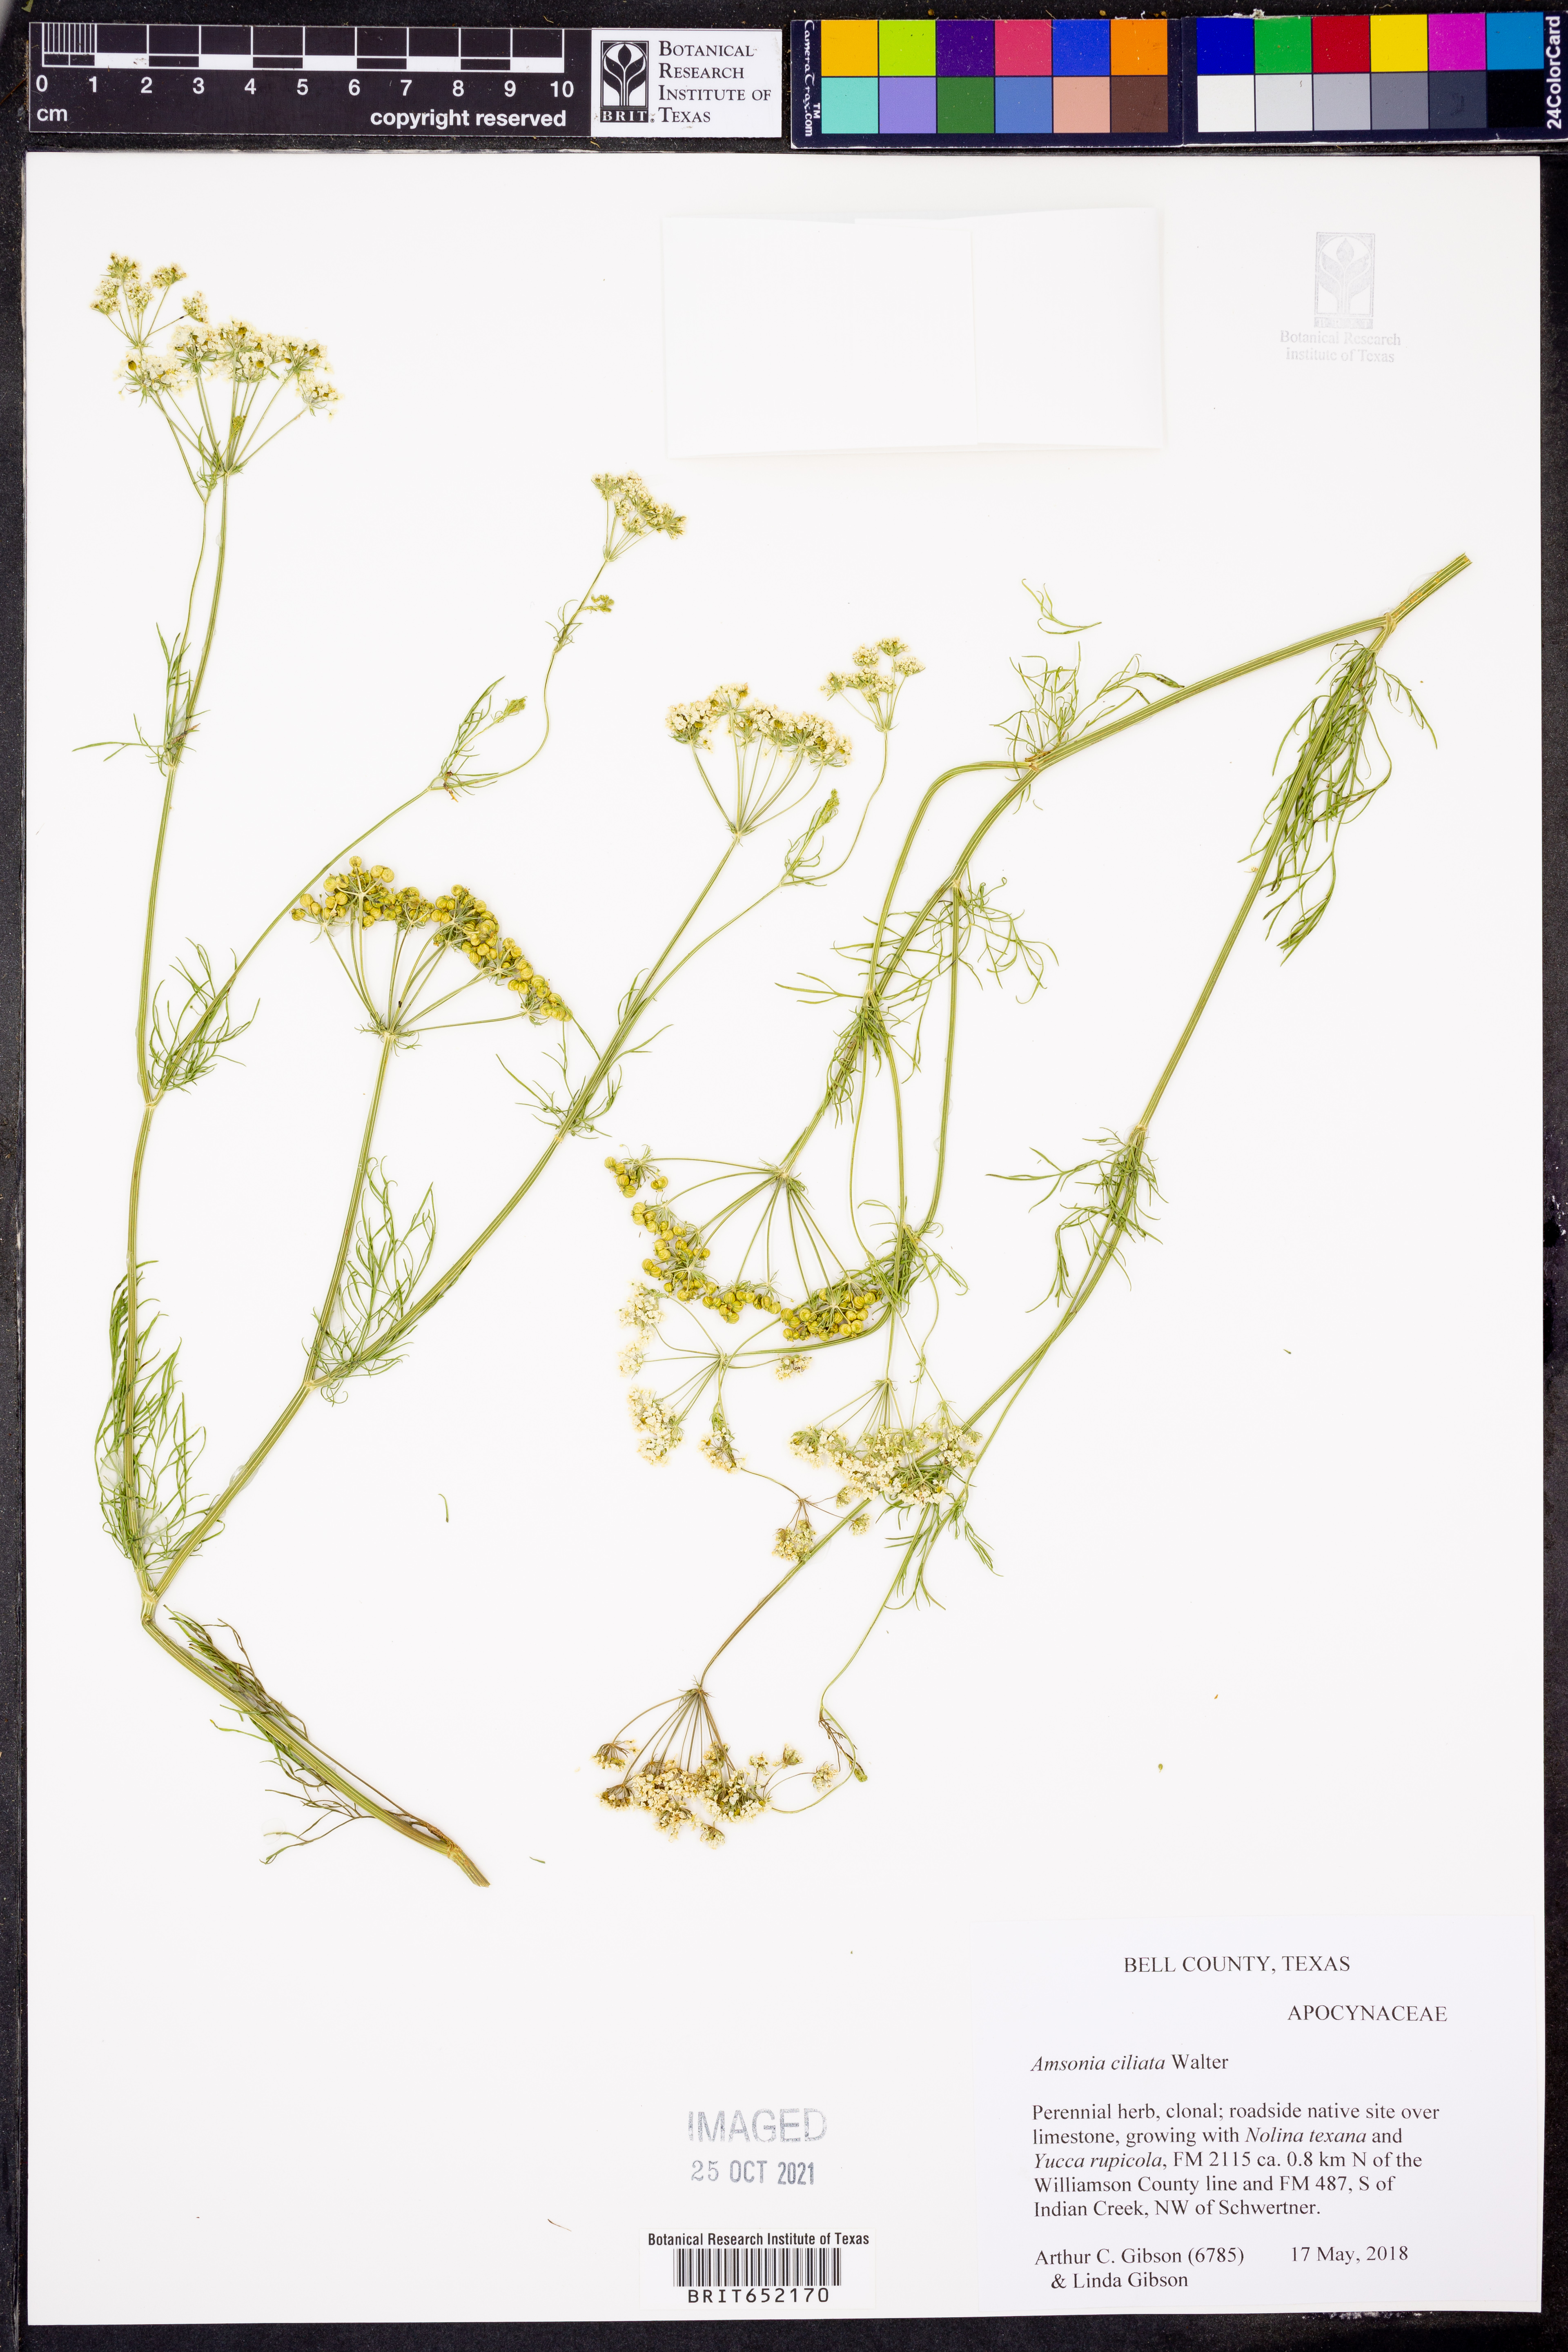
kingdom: Plantae
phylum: Tracheophyta
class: Magnoliopsida
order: Gentianales
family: Apocynaceae
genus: Amsonia
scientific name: Amsonia ciliata
